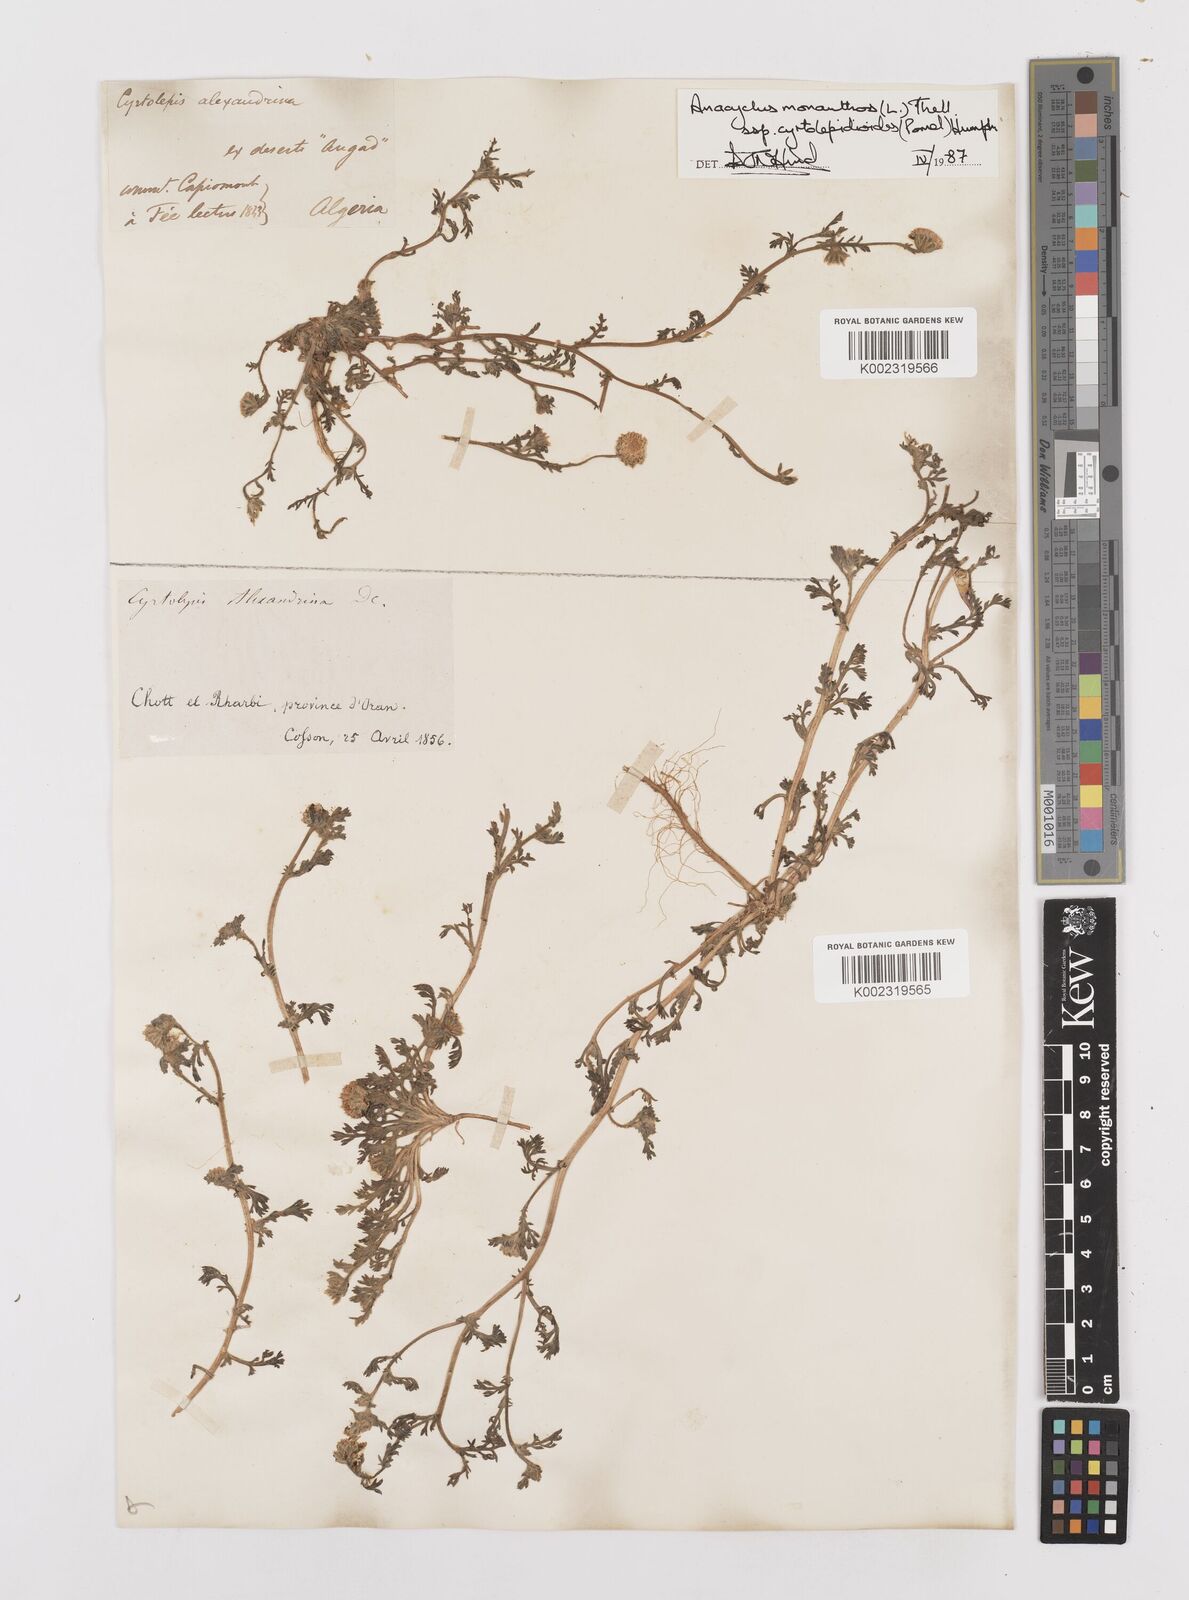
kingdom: Plantae
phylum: Tracheophyta
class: Magnoliopsida
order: Asterales
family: Asteraceae
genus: Anacyclus
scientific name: Anacyclus monanthos
